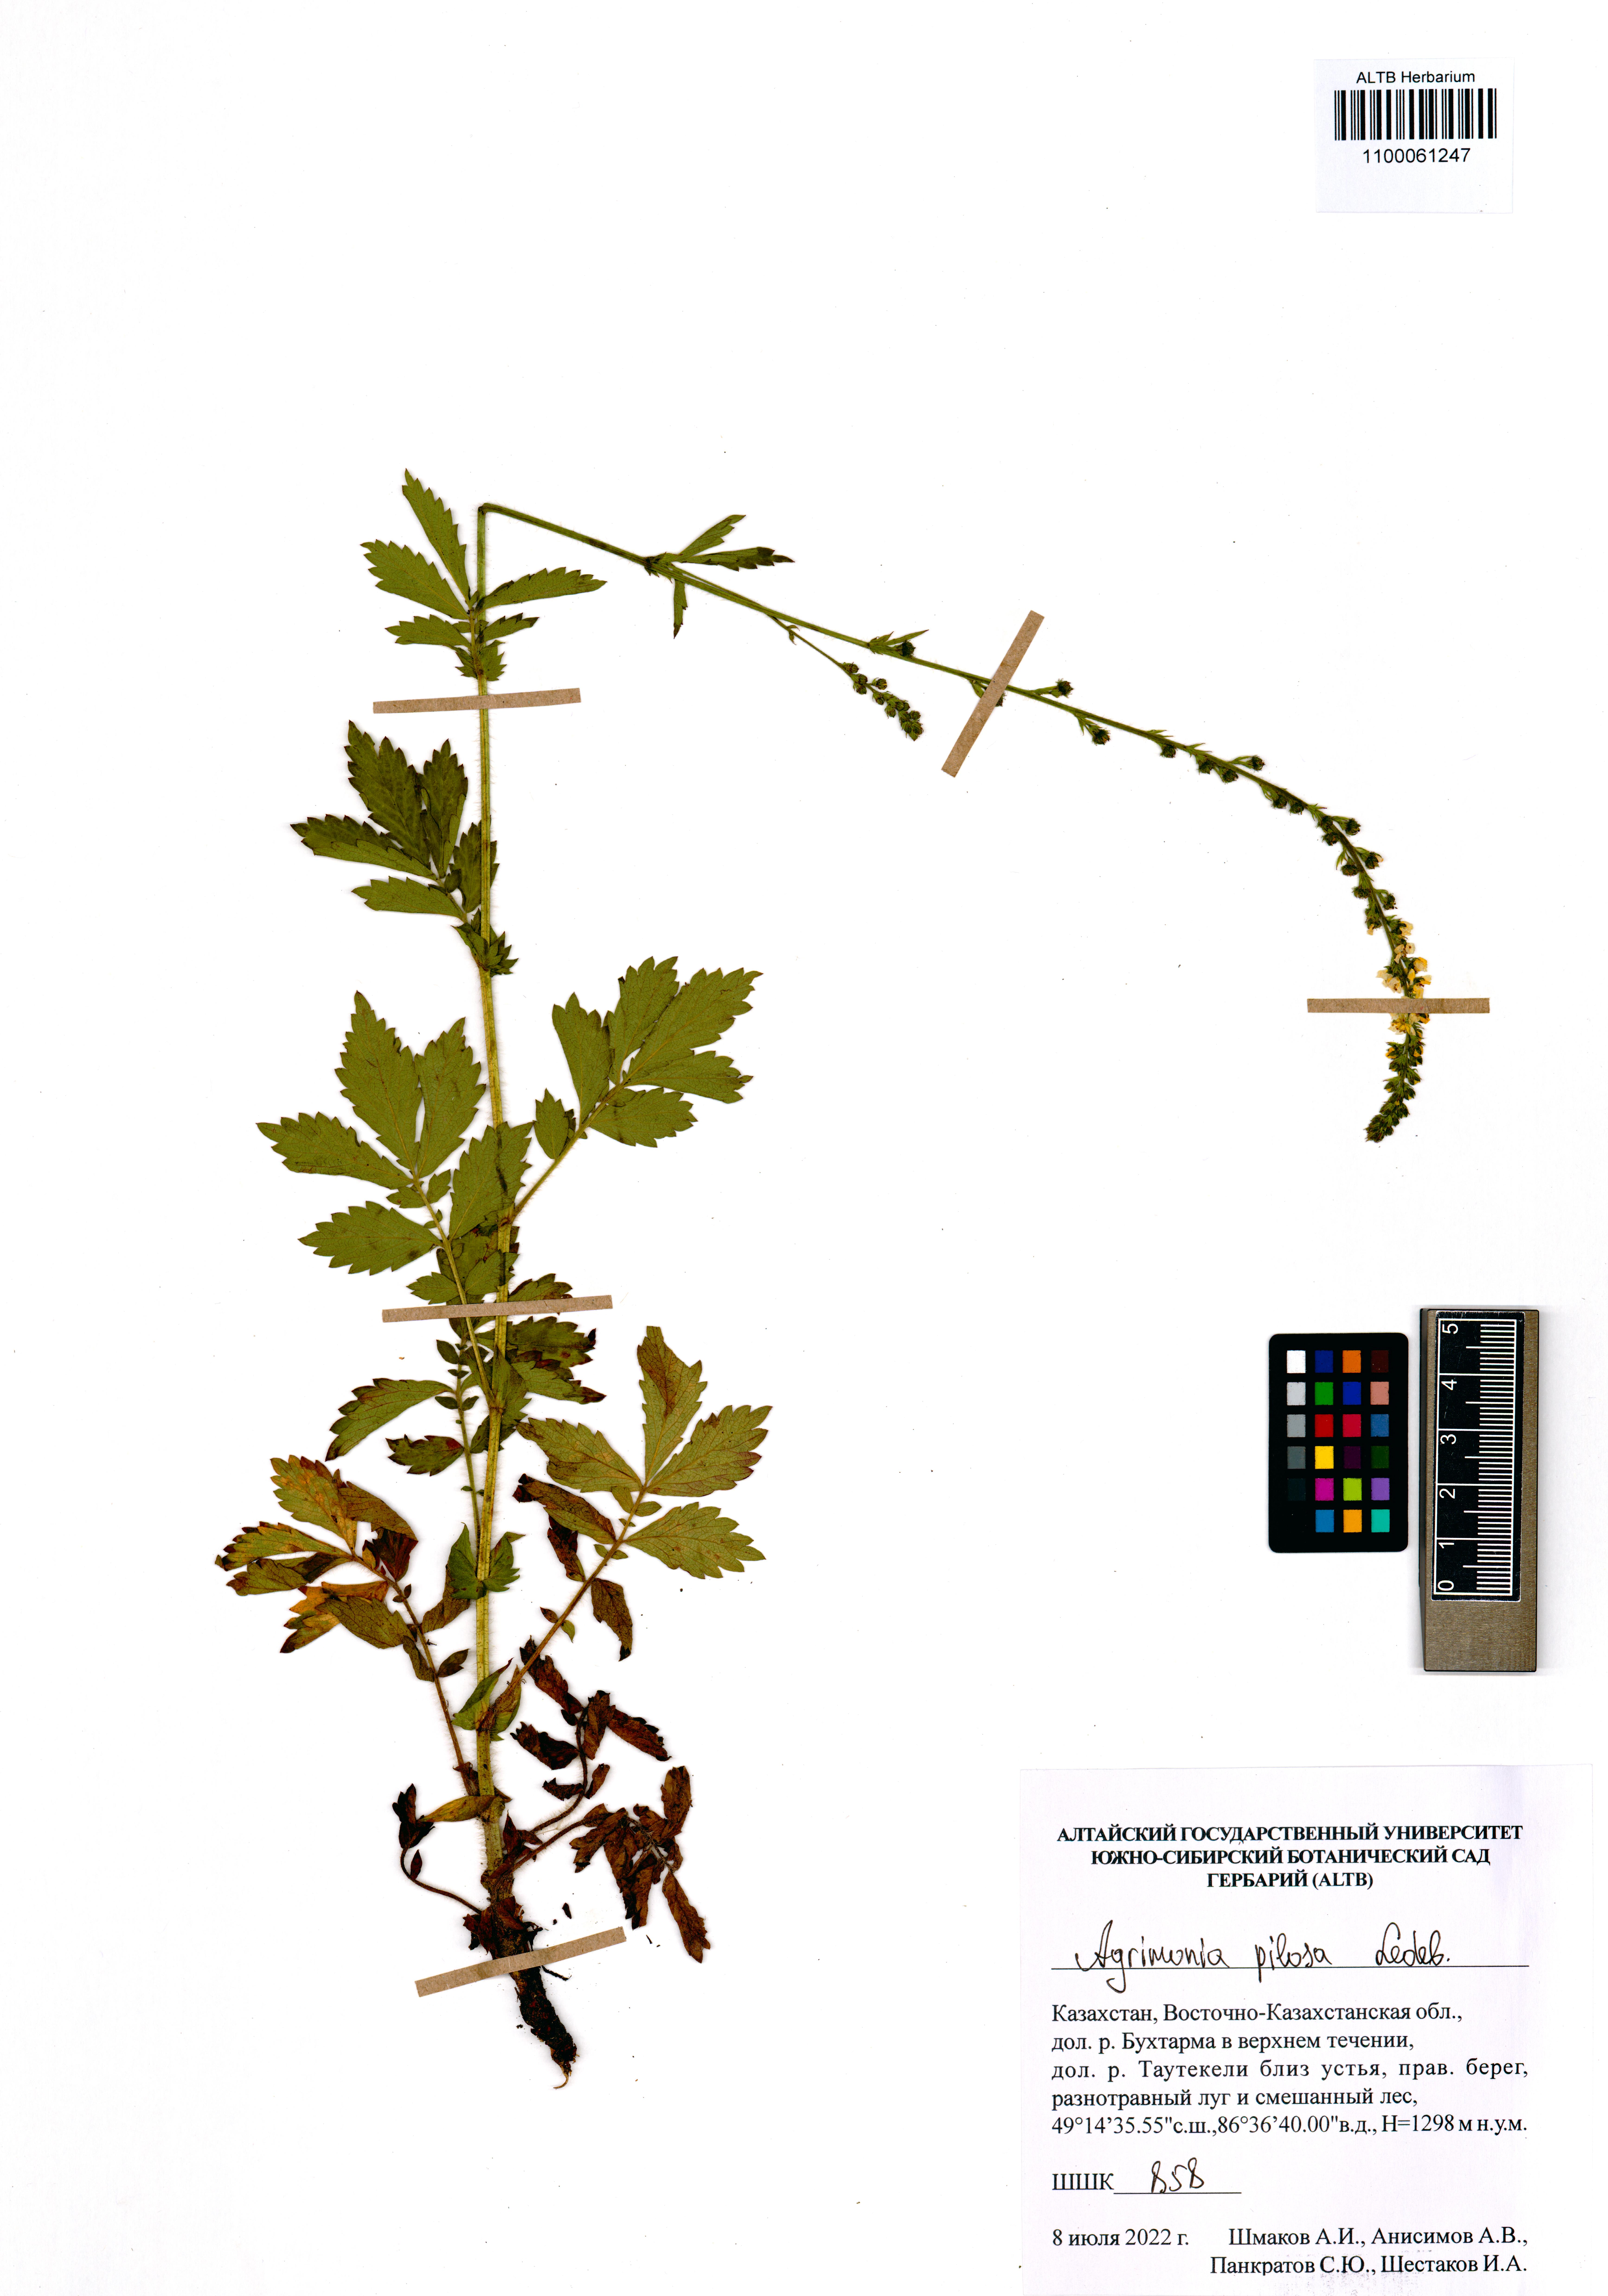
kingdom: Plantae
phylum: Tracheophyta
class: Magnoliopsida
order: Rosales
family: Rosaceae
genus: Agrimonia
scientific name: Agrimonia pilosa
